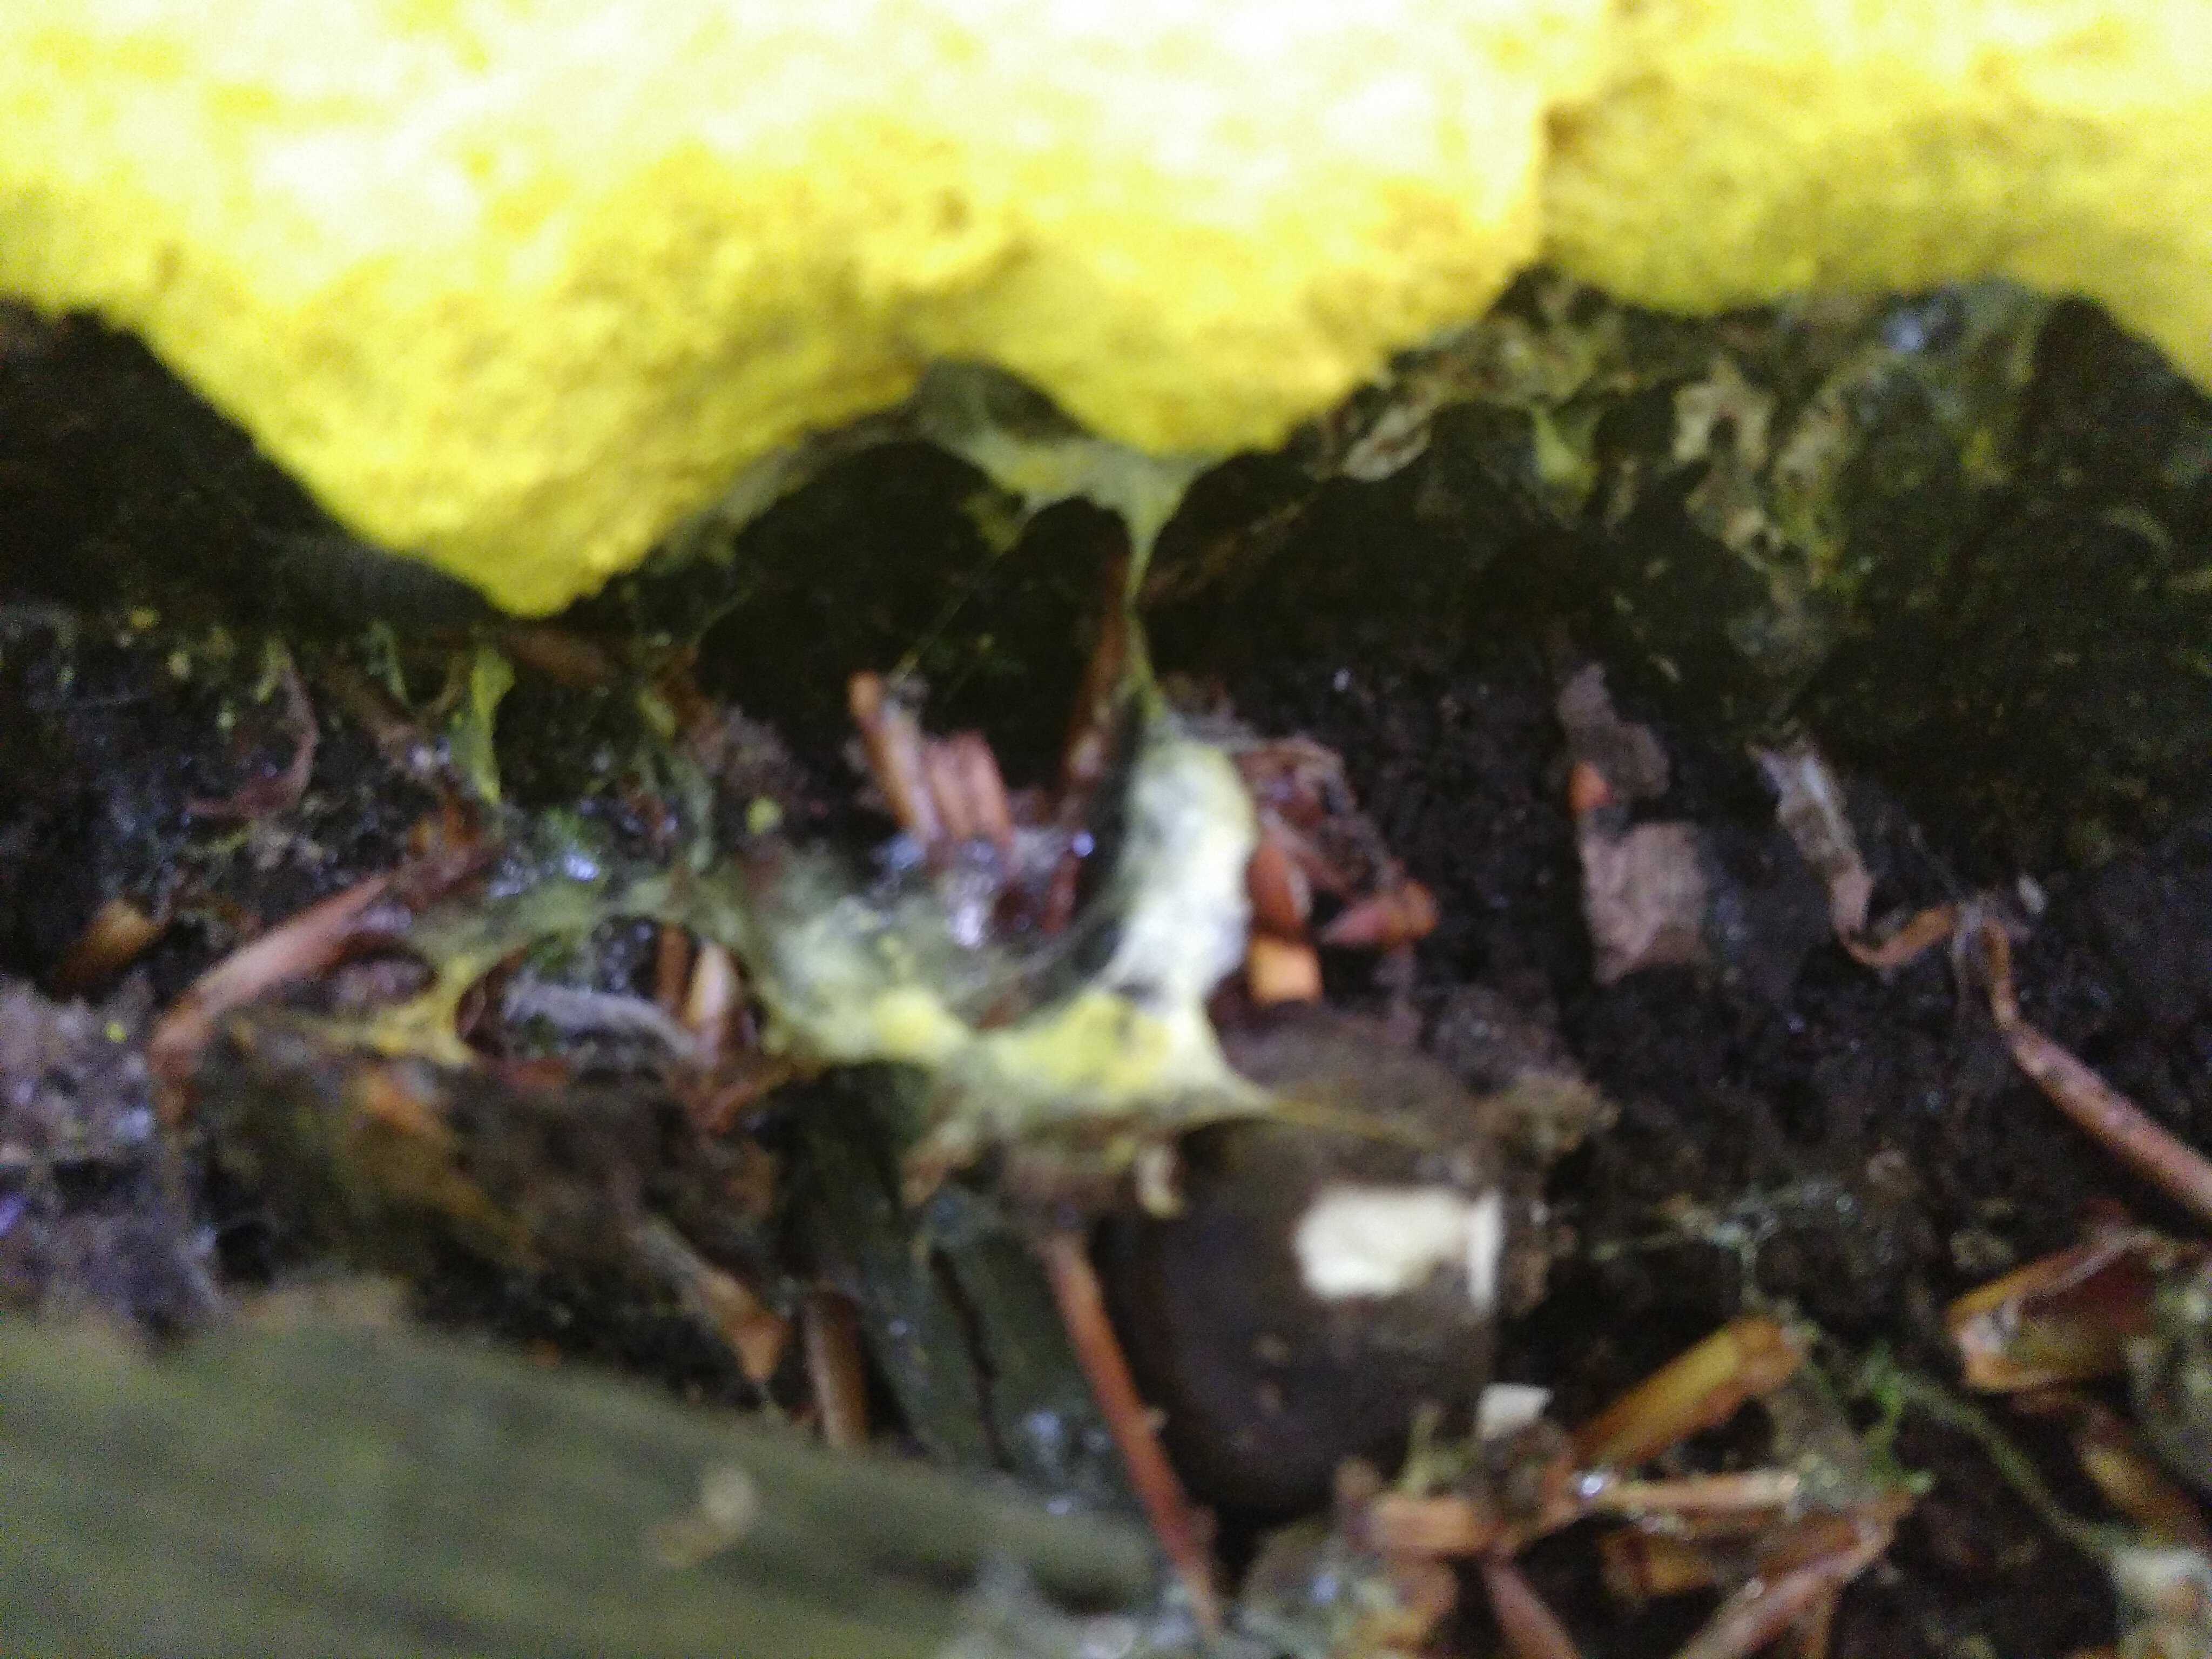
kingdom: Protozoa
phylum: Mycetozoa
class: Myxomycetes
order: Physarales
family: Physaraceae
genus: Fuligo
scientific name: Fuligo septica
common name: gul troldsmør
